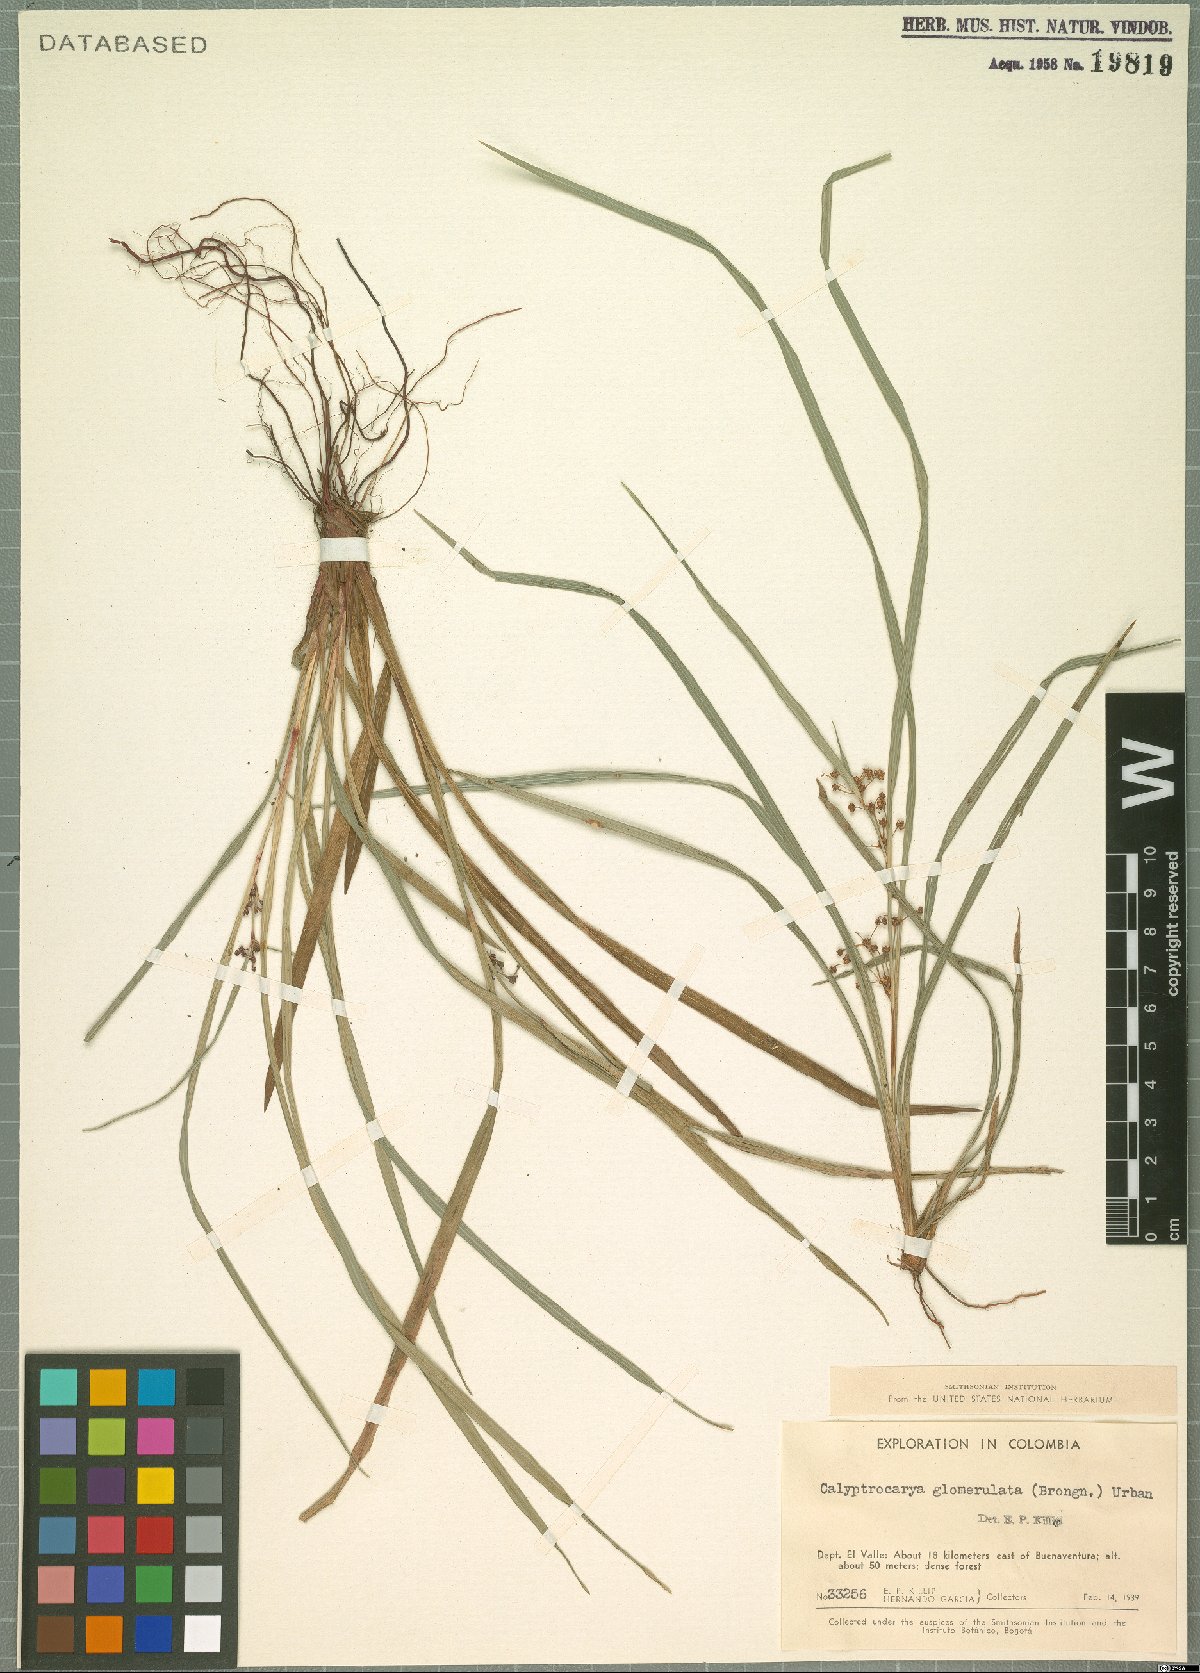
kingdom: Plantae
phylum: Tracheophyta
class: Liliopsida
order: Poales
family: Cyperaceae
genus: Calyptrocarya
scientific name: Calyptrocarya glomerulata
